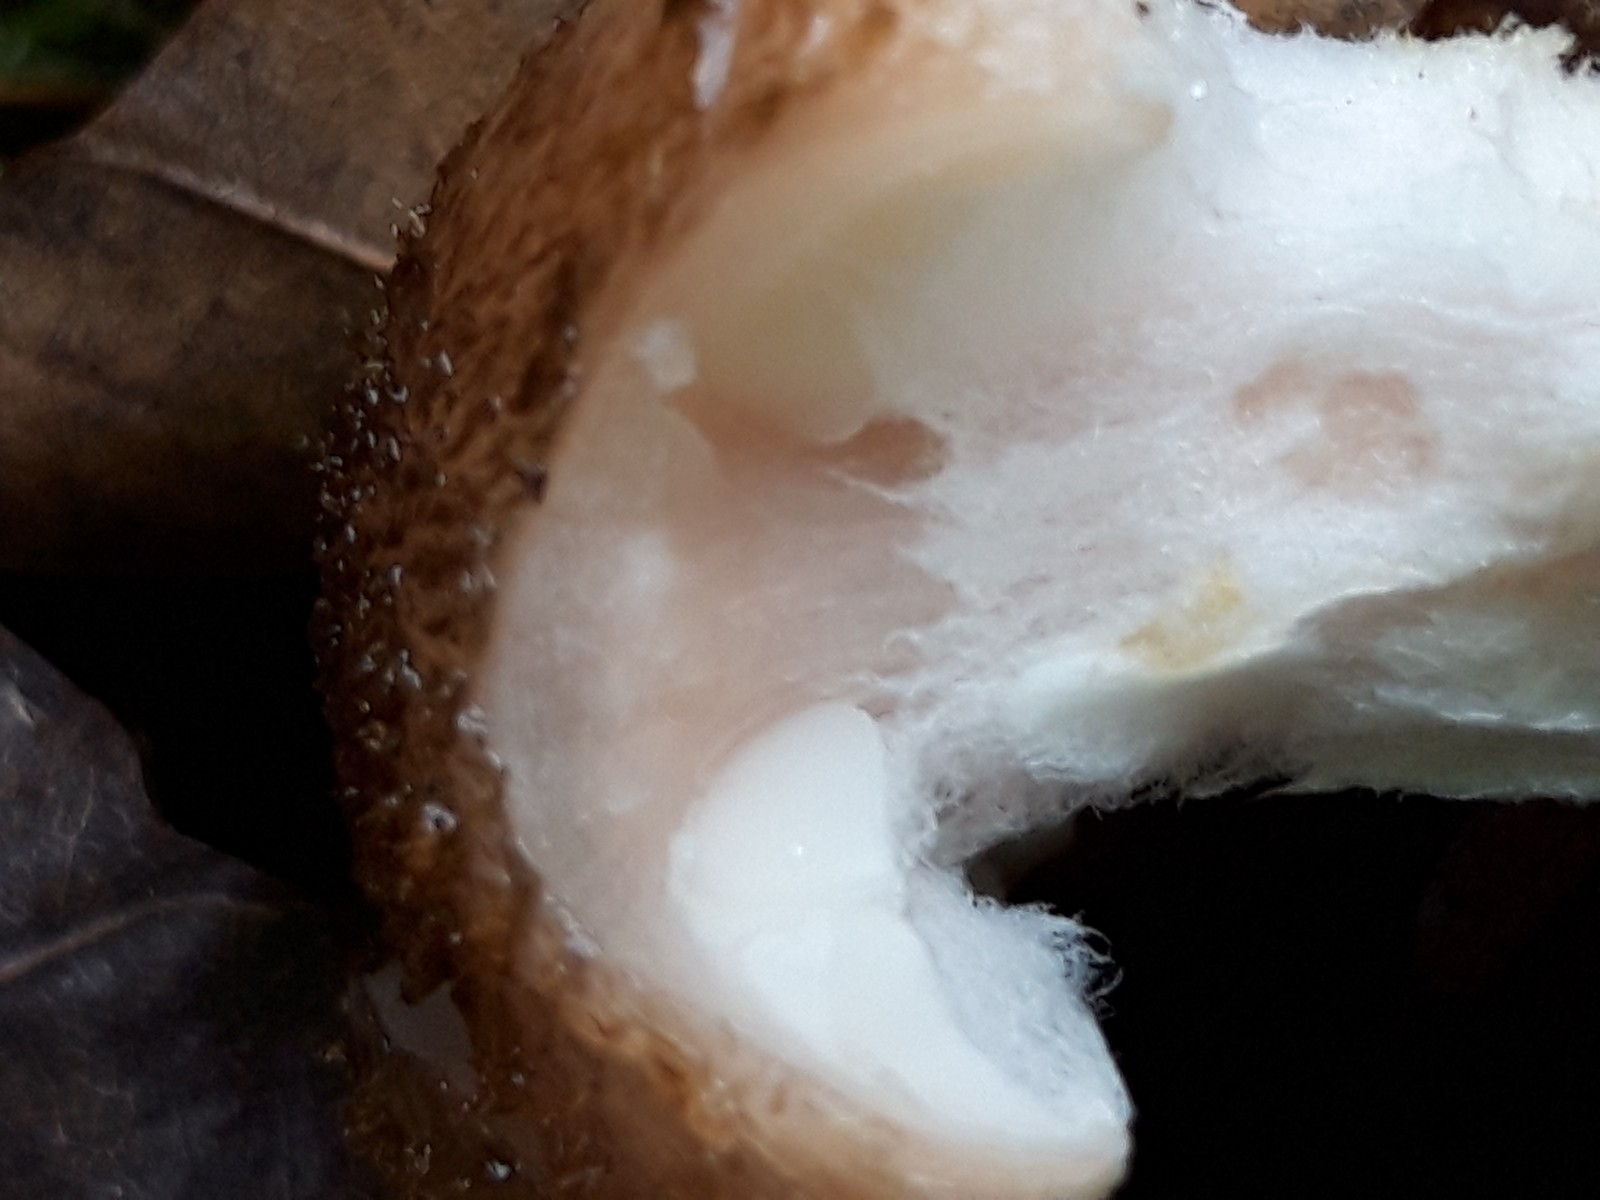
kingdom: Fungi
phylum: Basidiomycota
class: Agaricomycetes
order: Agaricales
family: Physalacriaceae
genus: Armillaria
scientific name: Armillaria
